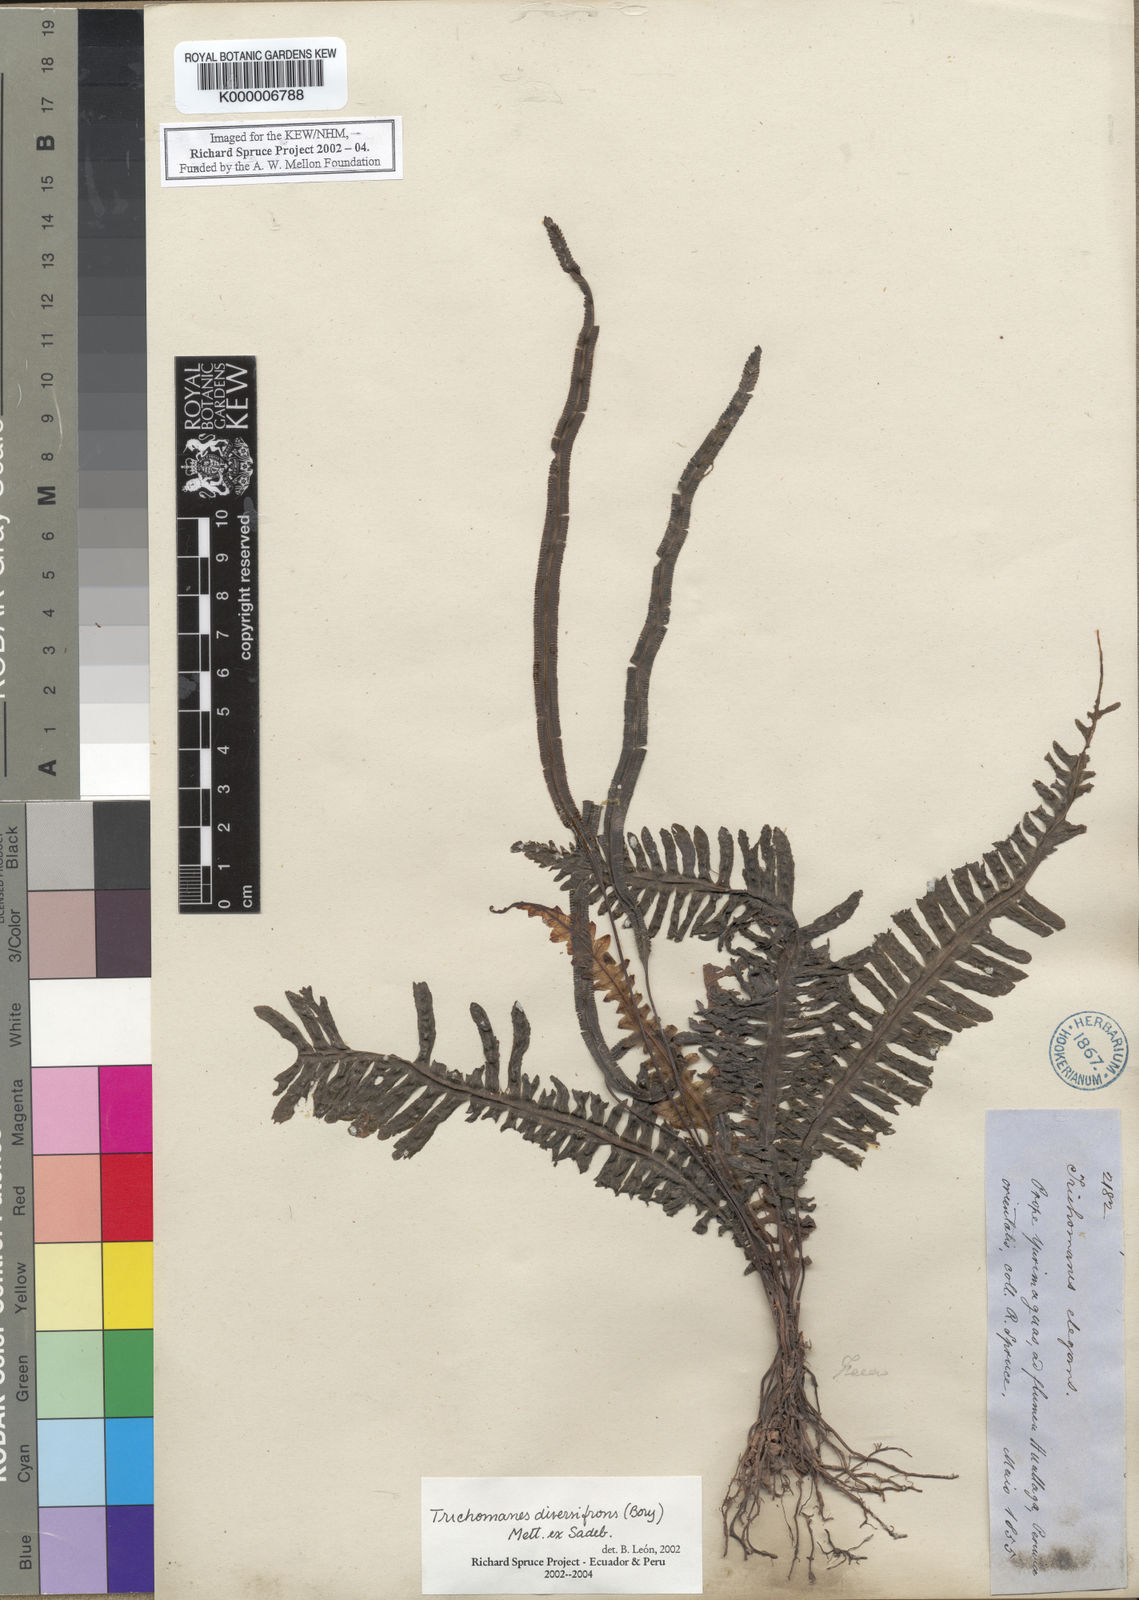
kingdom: Plantae
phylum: Tracheophyta
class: Polypodiopsida
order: Hymenophyllales
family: Hymenophyllaceae
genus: Trichomanes
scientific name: Trichomanes
